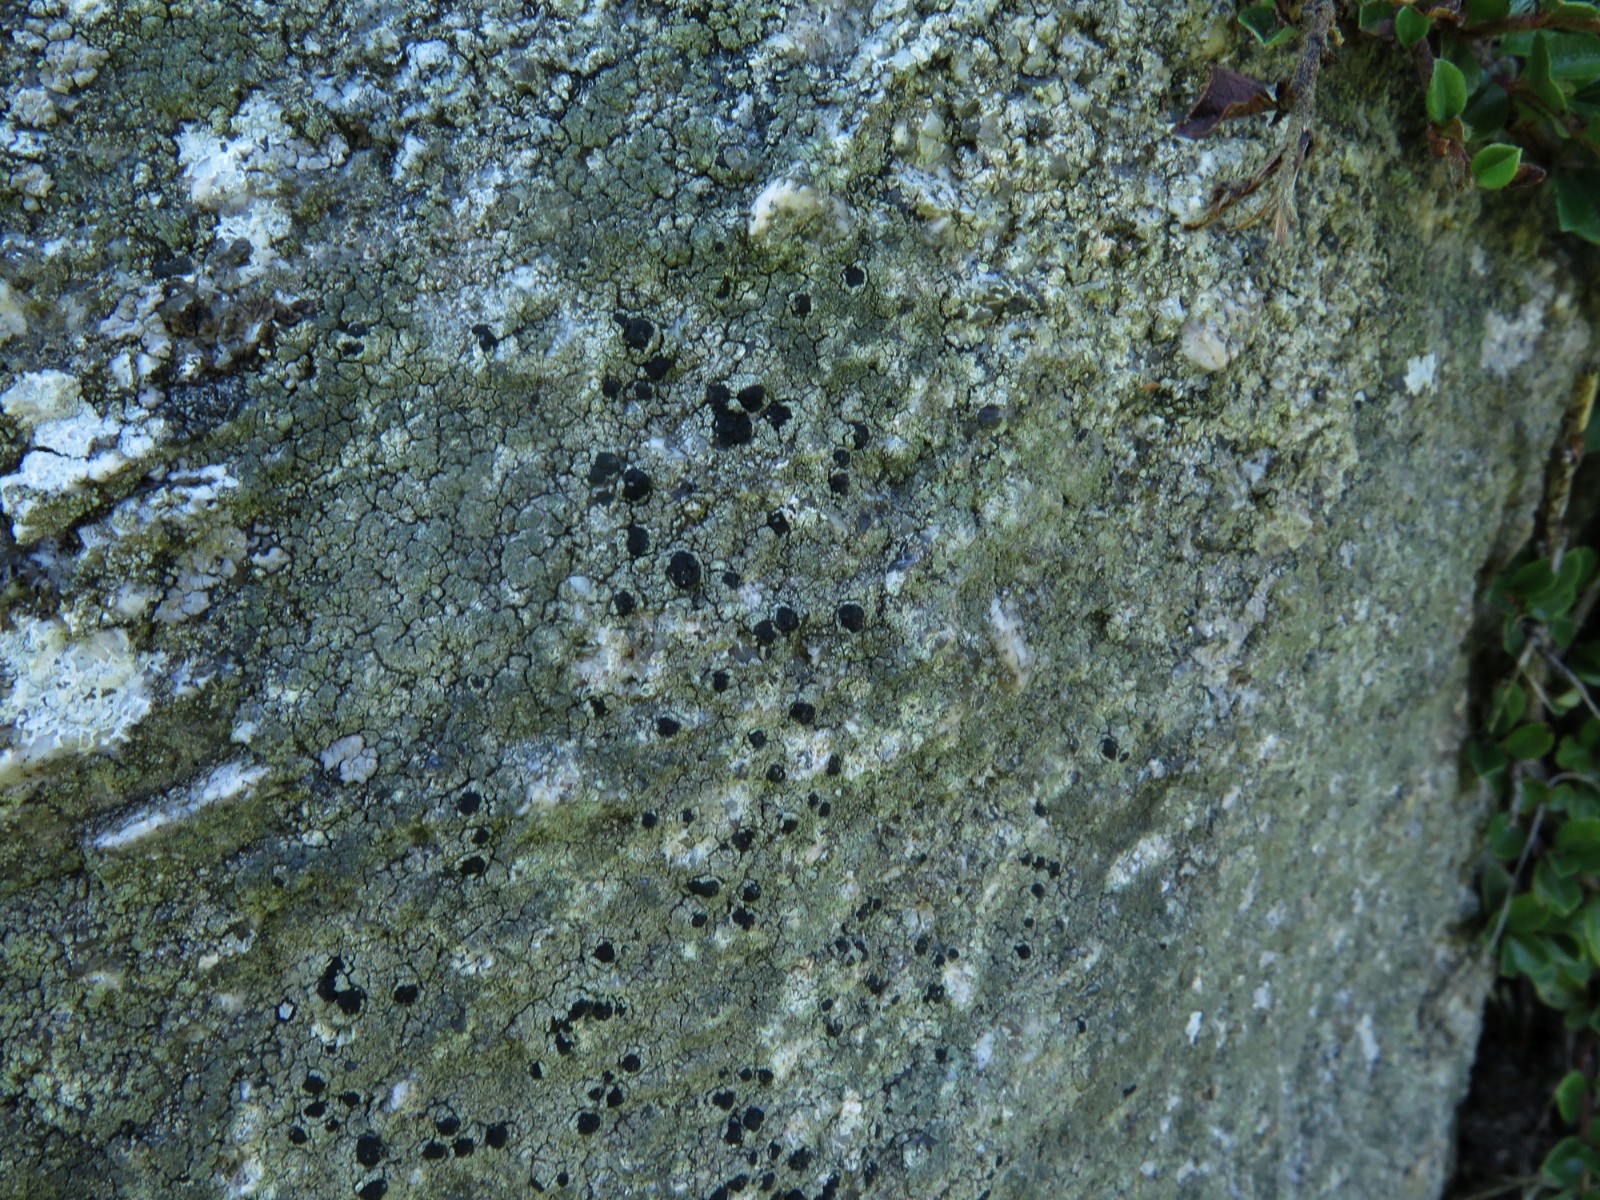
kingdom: Fungi
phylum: Ascomycota
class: Lecanoromycetes
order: Lecanorales
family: Lecanoraceae
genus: Lecidella
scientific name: Lecidella scabra
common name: skurvet skivelav
